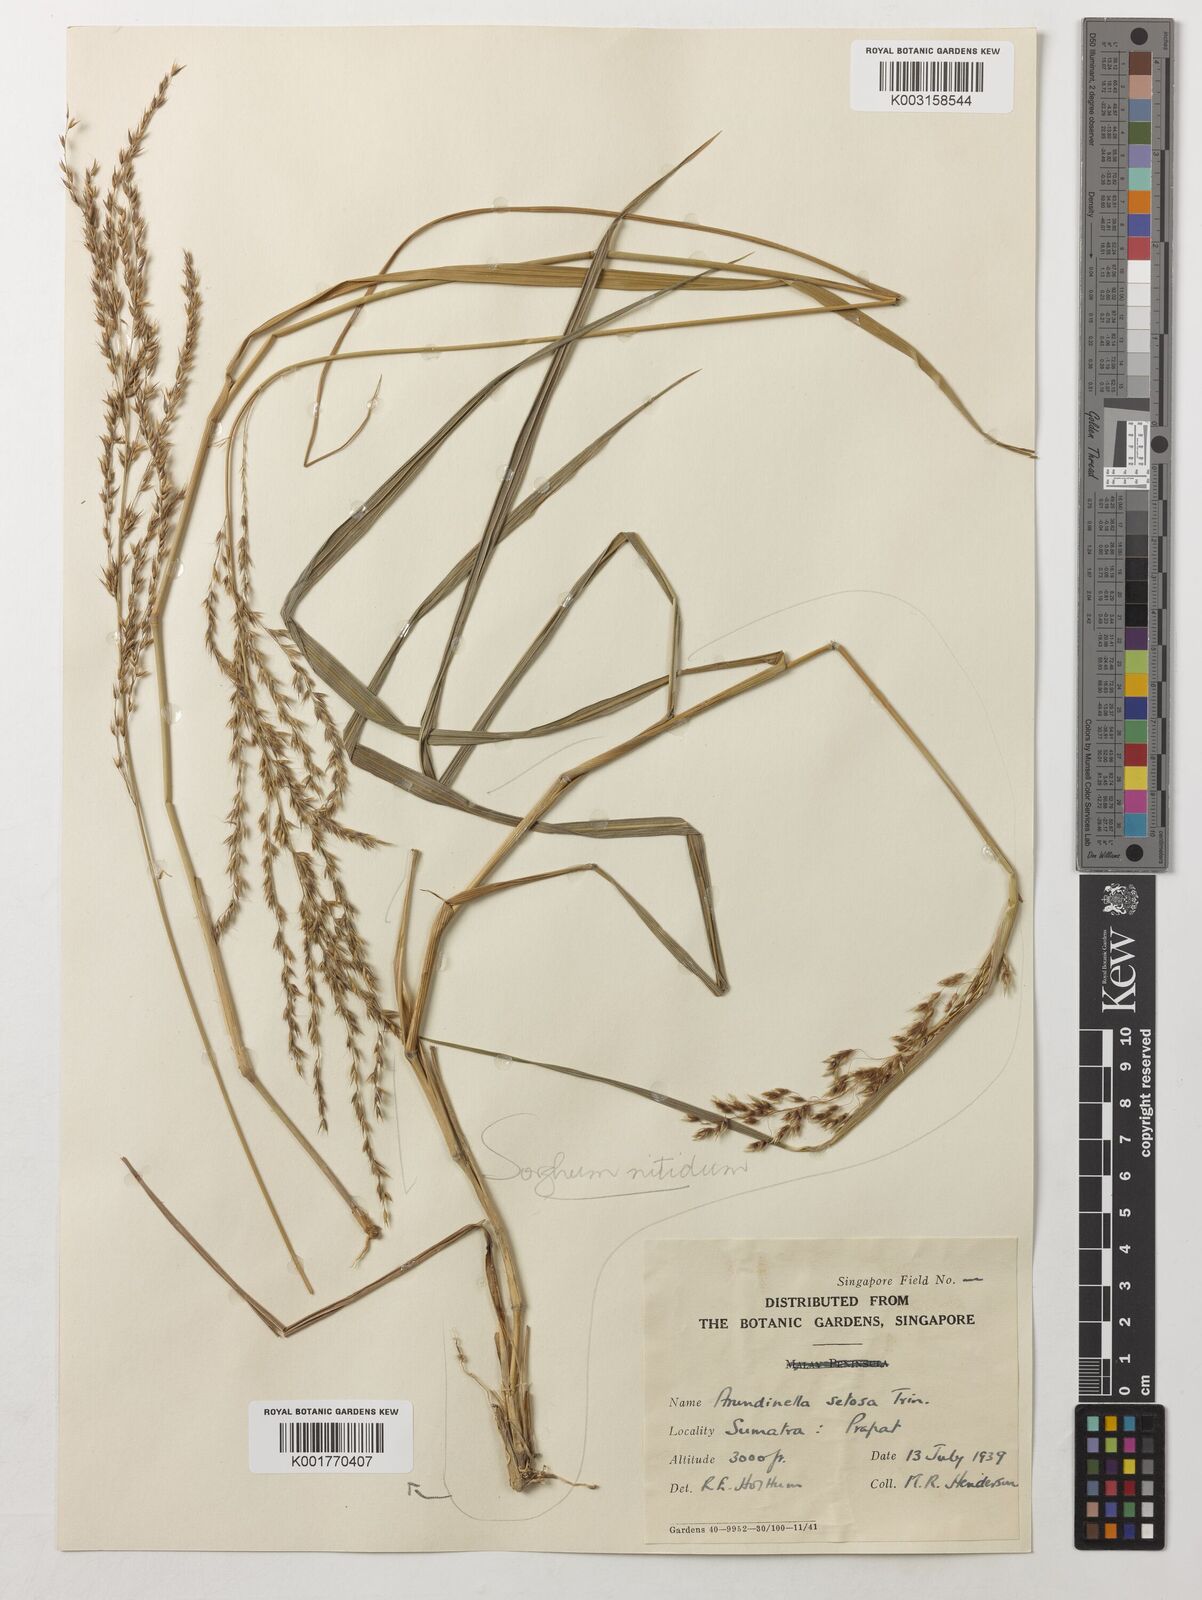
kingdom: Plantae
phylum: Tracheophyta
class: Liliopsida
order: Poales
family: Poaceae
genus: Sorghum
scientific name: Sorghum nitidum
